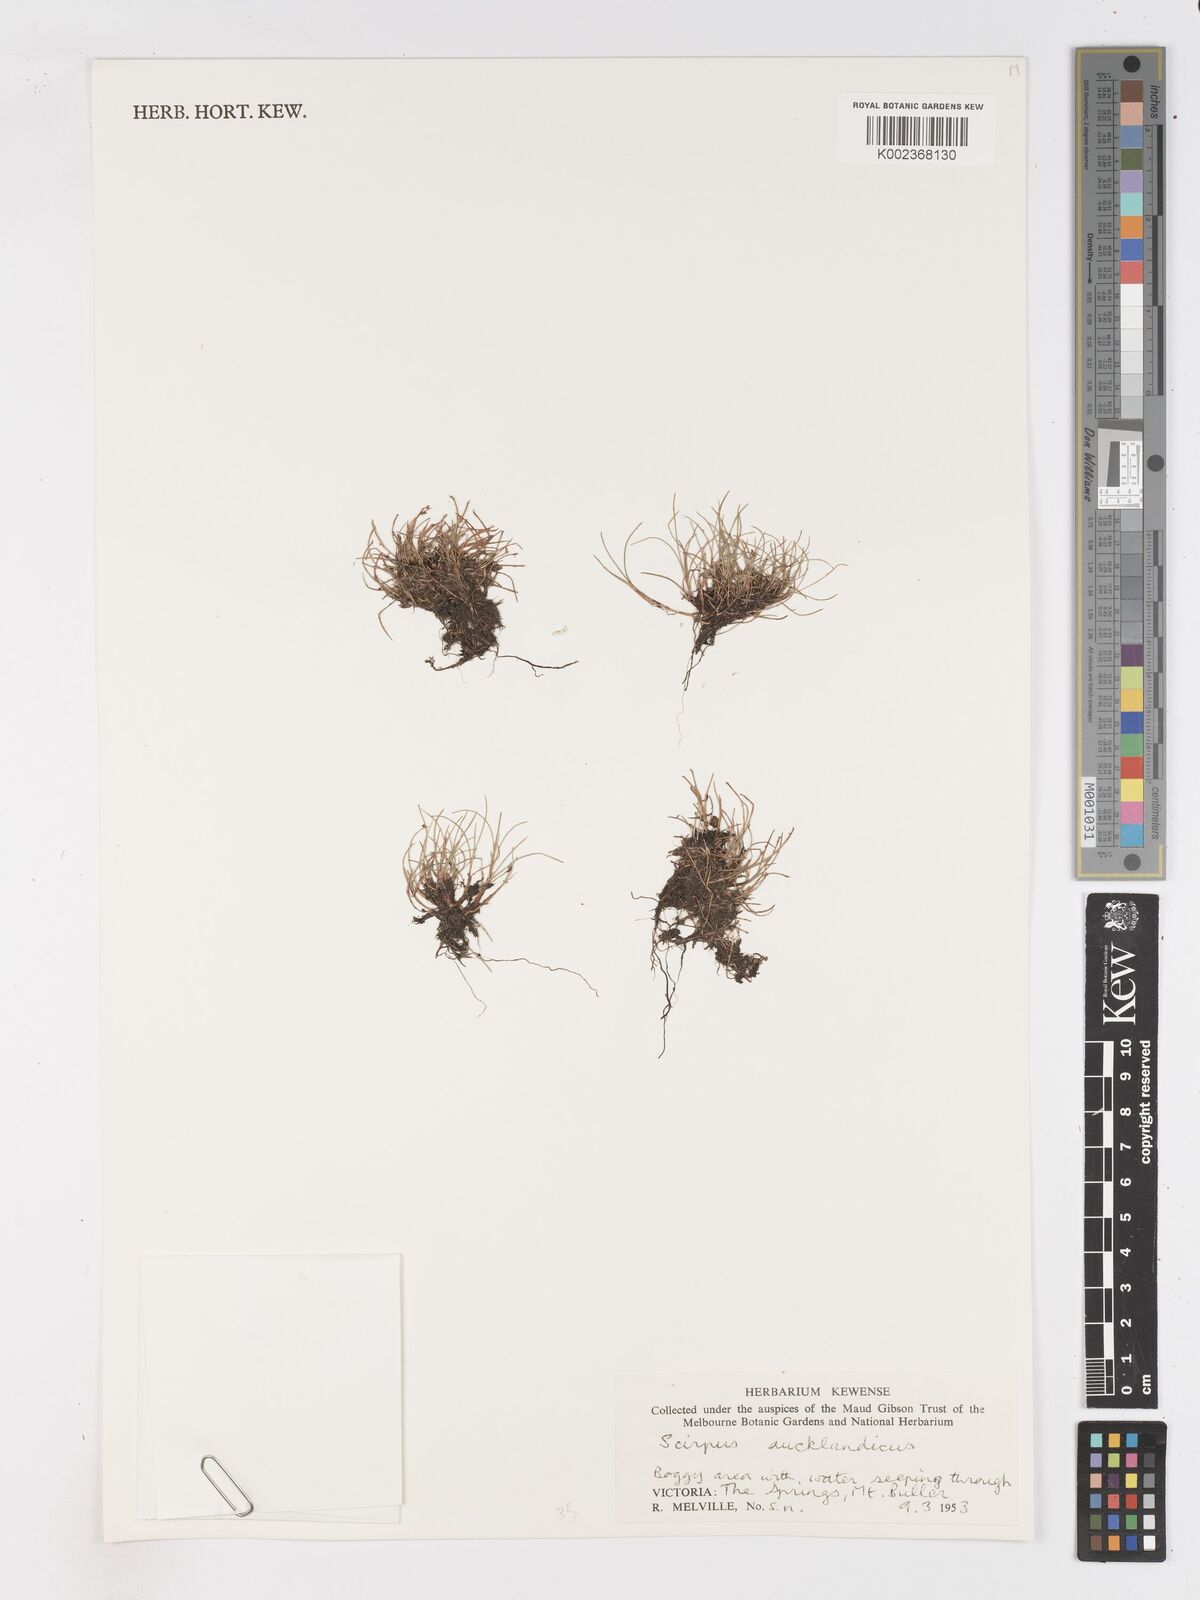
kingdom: Plantae
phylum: Tracheophyta
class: Liliopsida
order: Poales
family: Cyperaceae
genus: Isolepis
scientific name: Isolepis aucklandica
